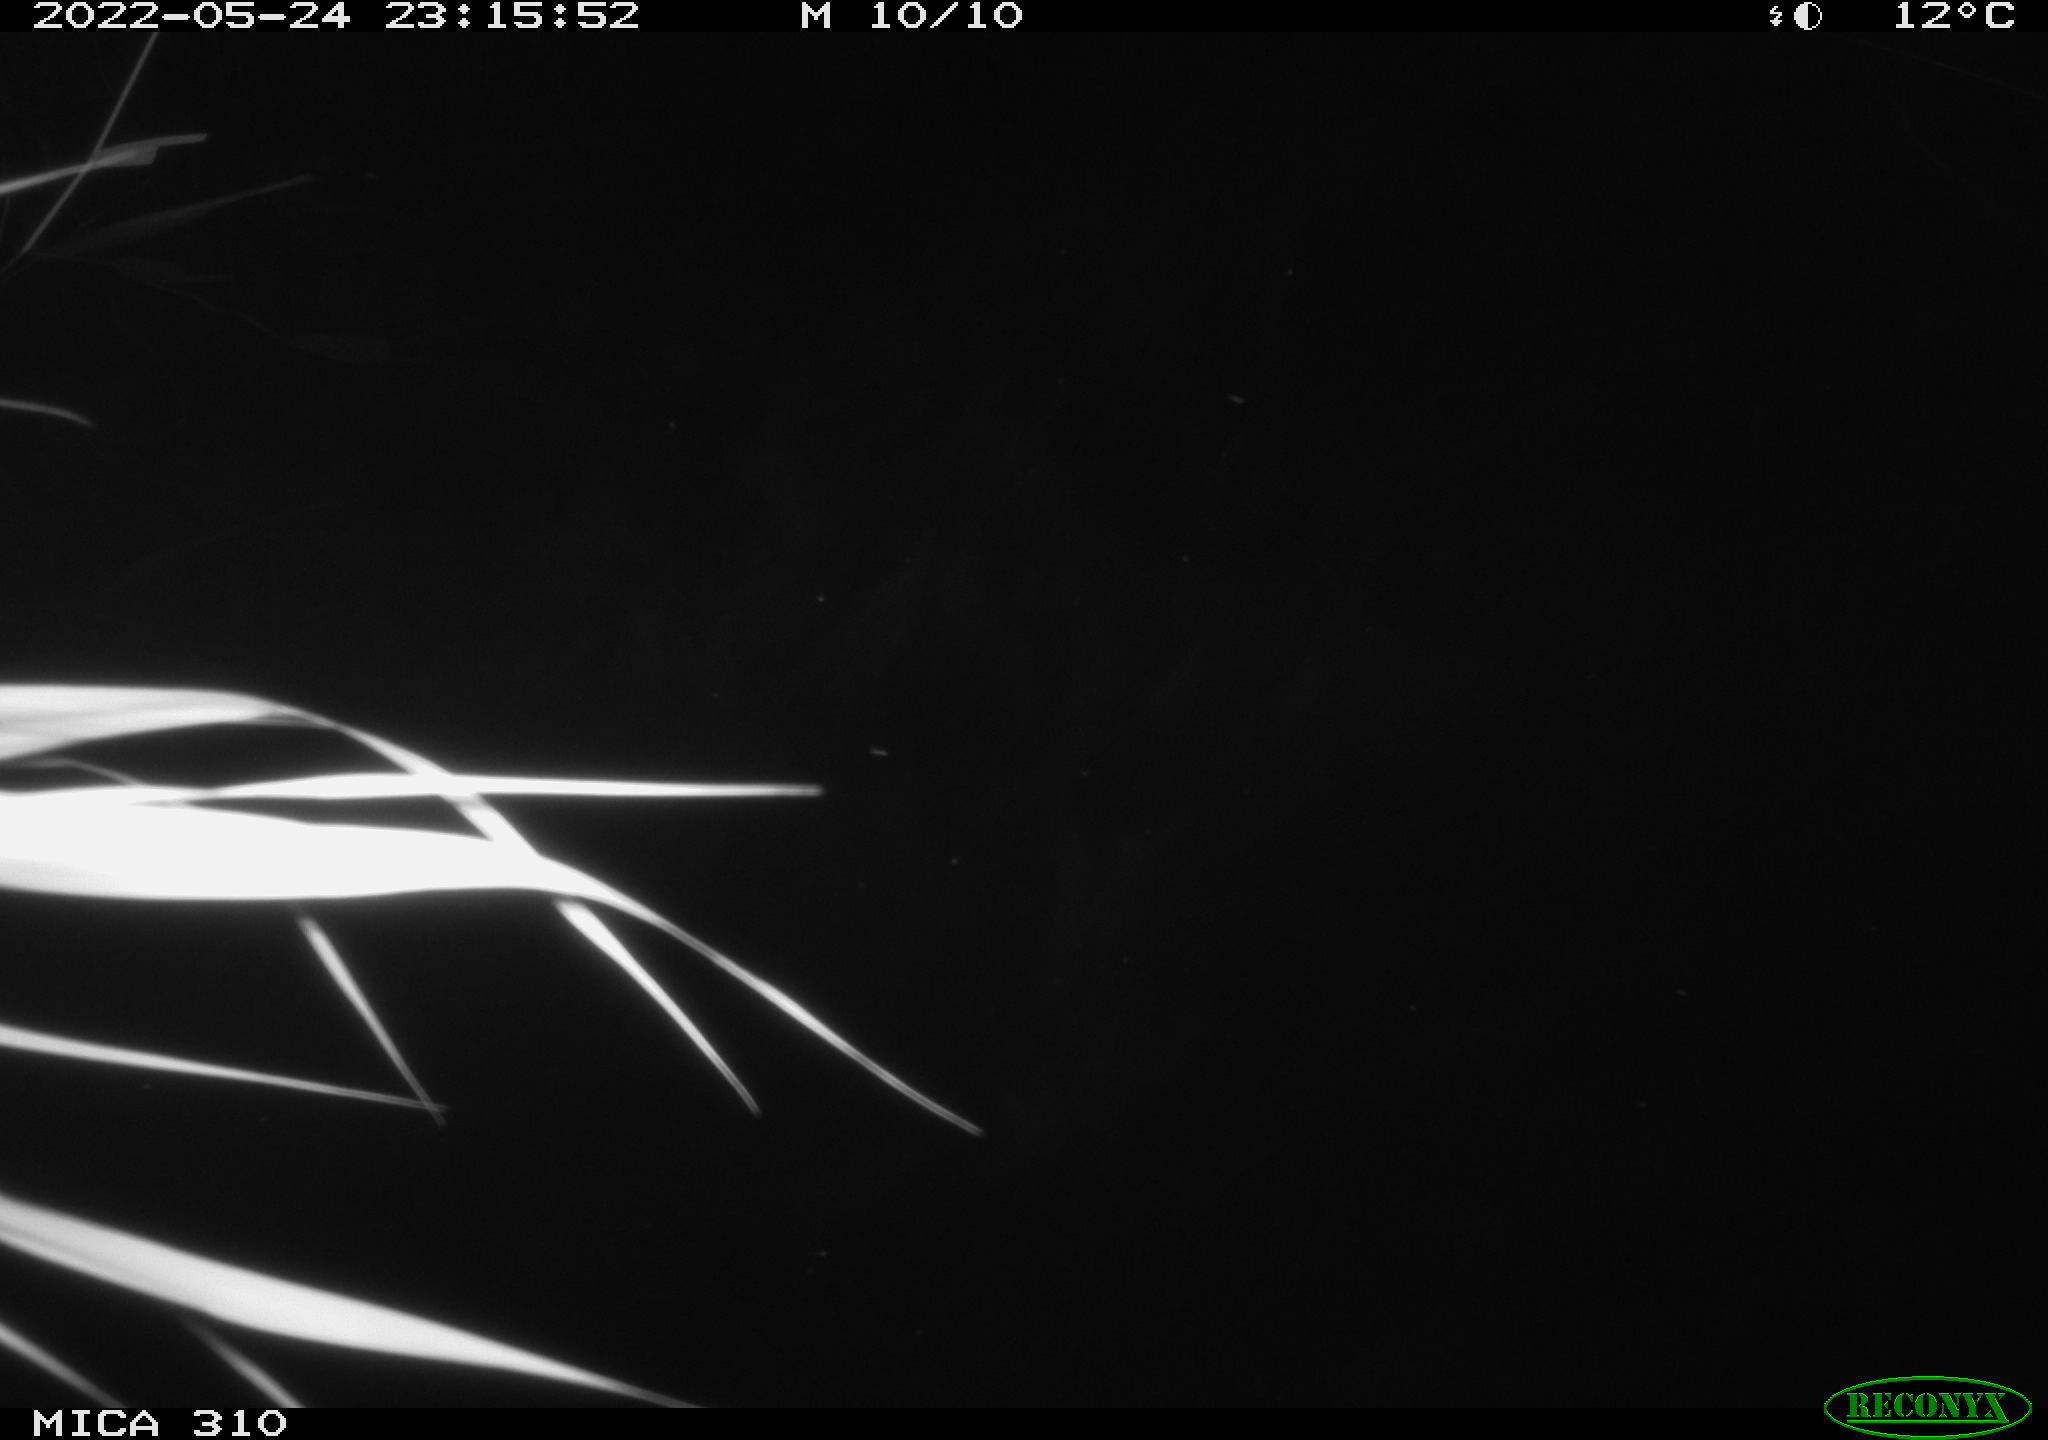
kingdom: Animalia
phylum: Chordata
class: Mammalia
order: Rodentia
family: Cricetidae
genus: Ondatra
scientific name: Ondatra zibethicus
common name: Muskrat
